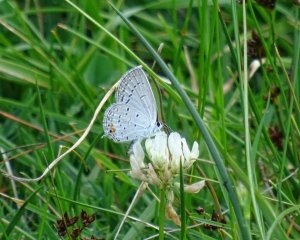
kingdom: Animalia
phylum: Arthropoda
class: Insecta
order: Lepidoptera
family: Lycaenidae
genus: Elkalyce
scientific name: Elkalyce comyntas
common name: Eastern Tailed-Blue
